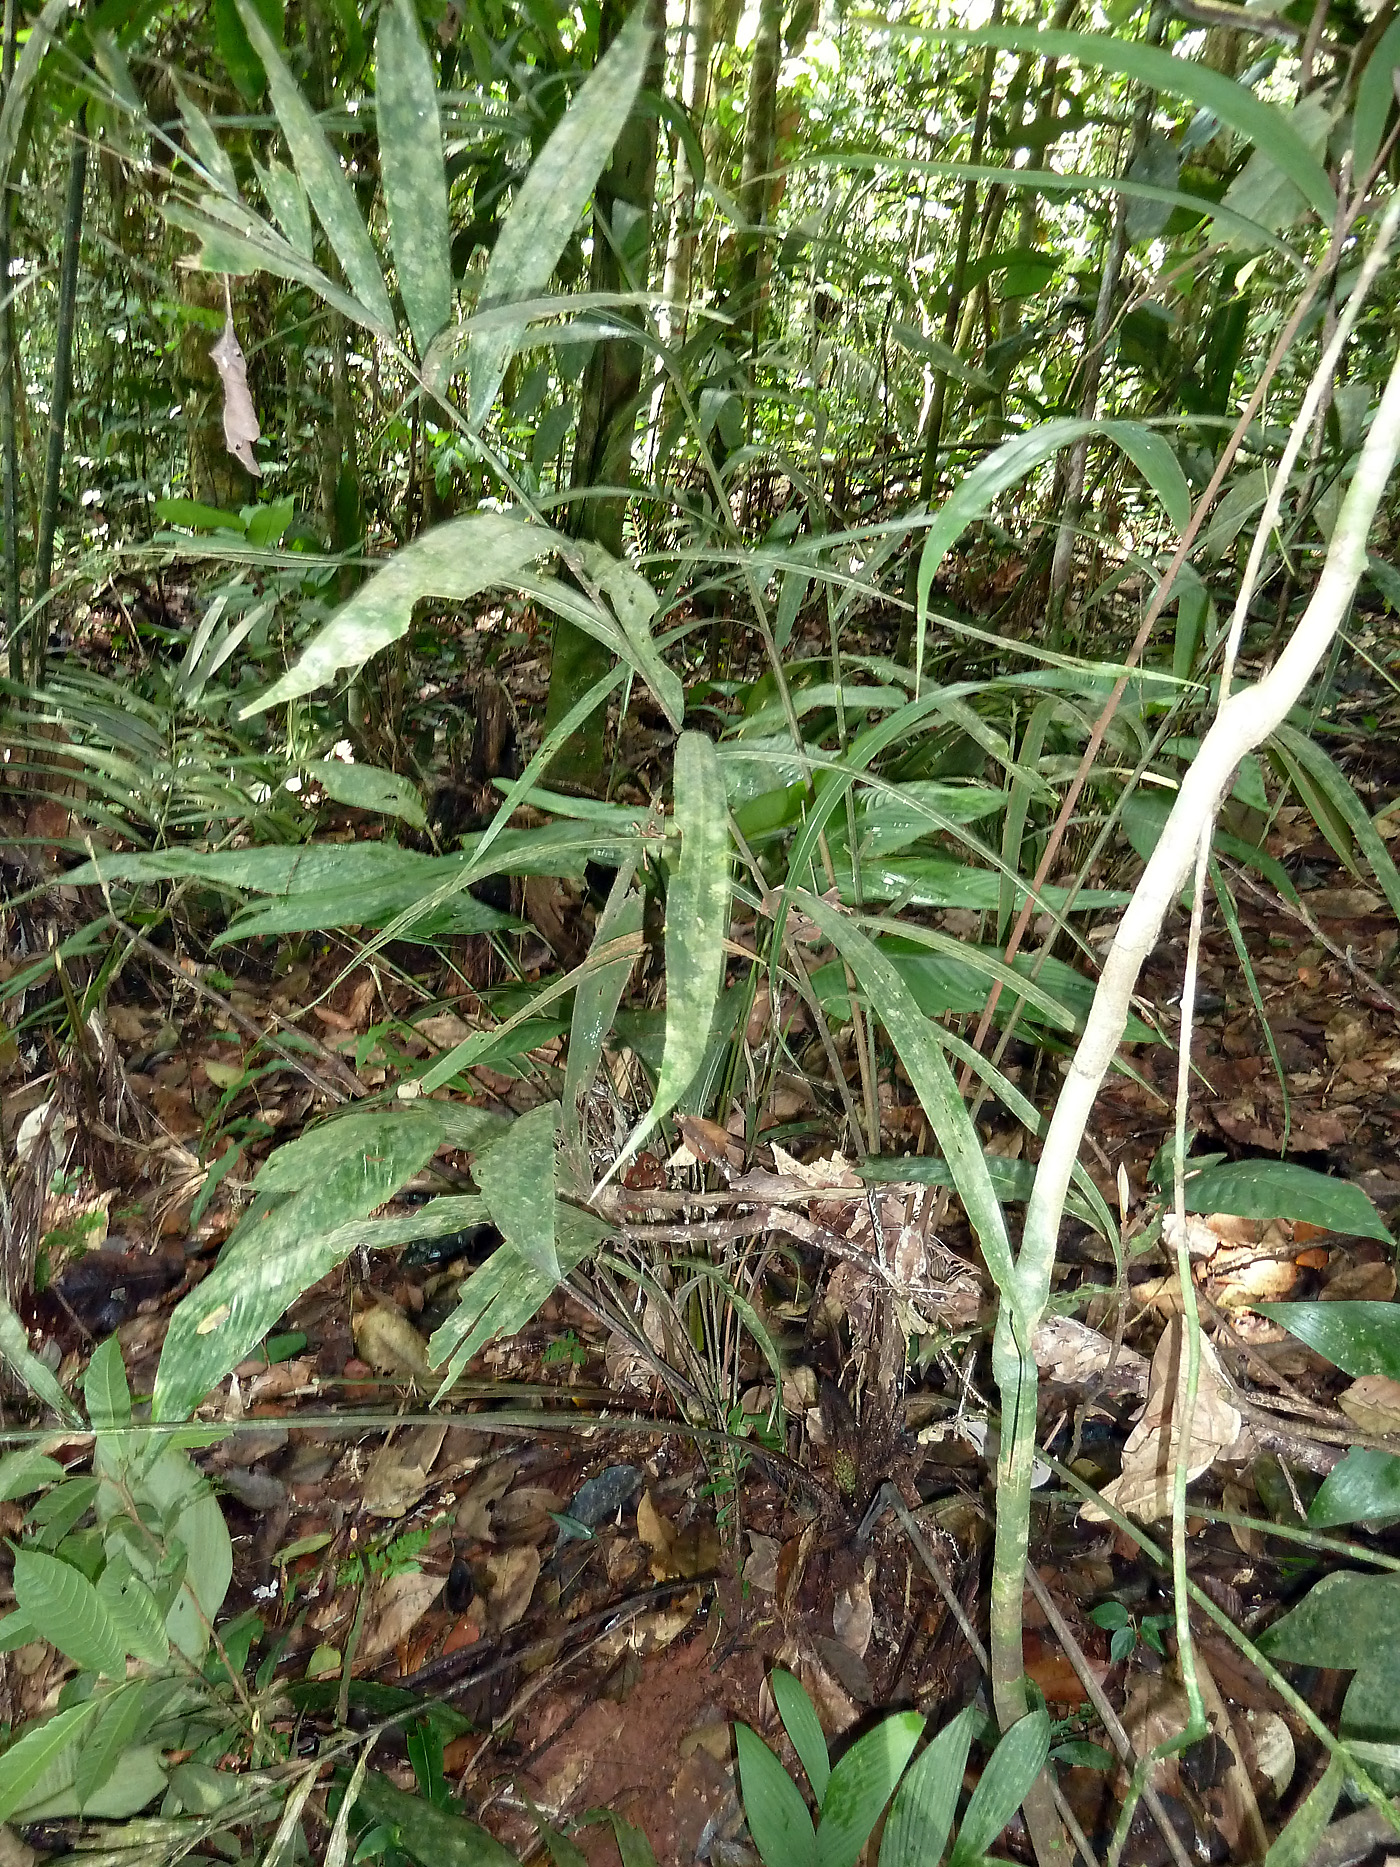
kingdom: Plantae
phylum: Tracheophyta
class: Liliopsida
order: Arecales
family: Arecaceae
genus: Bactris
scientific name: Bactris acanthocarpa
